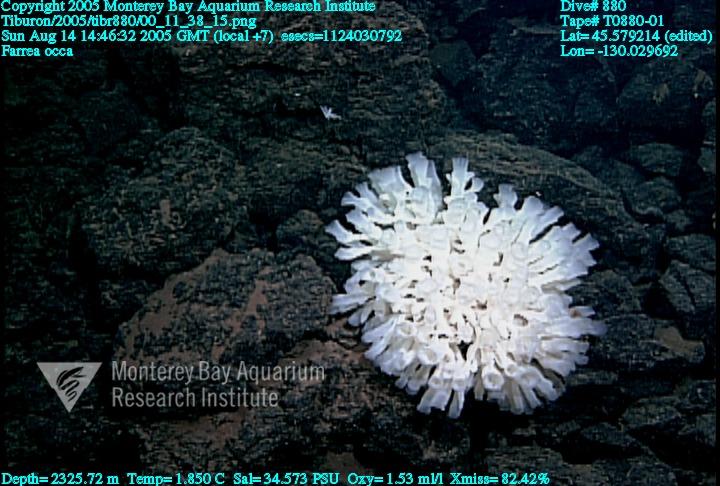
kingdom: Animalia
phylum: Porifera
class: Hexactinellida
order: Sceptrulophora
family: Farreidae
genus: Farrea
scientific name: Farrea occa
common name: Reversed glass sponge
